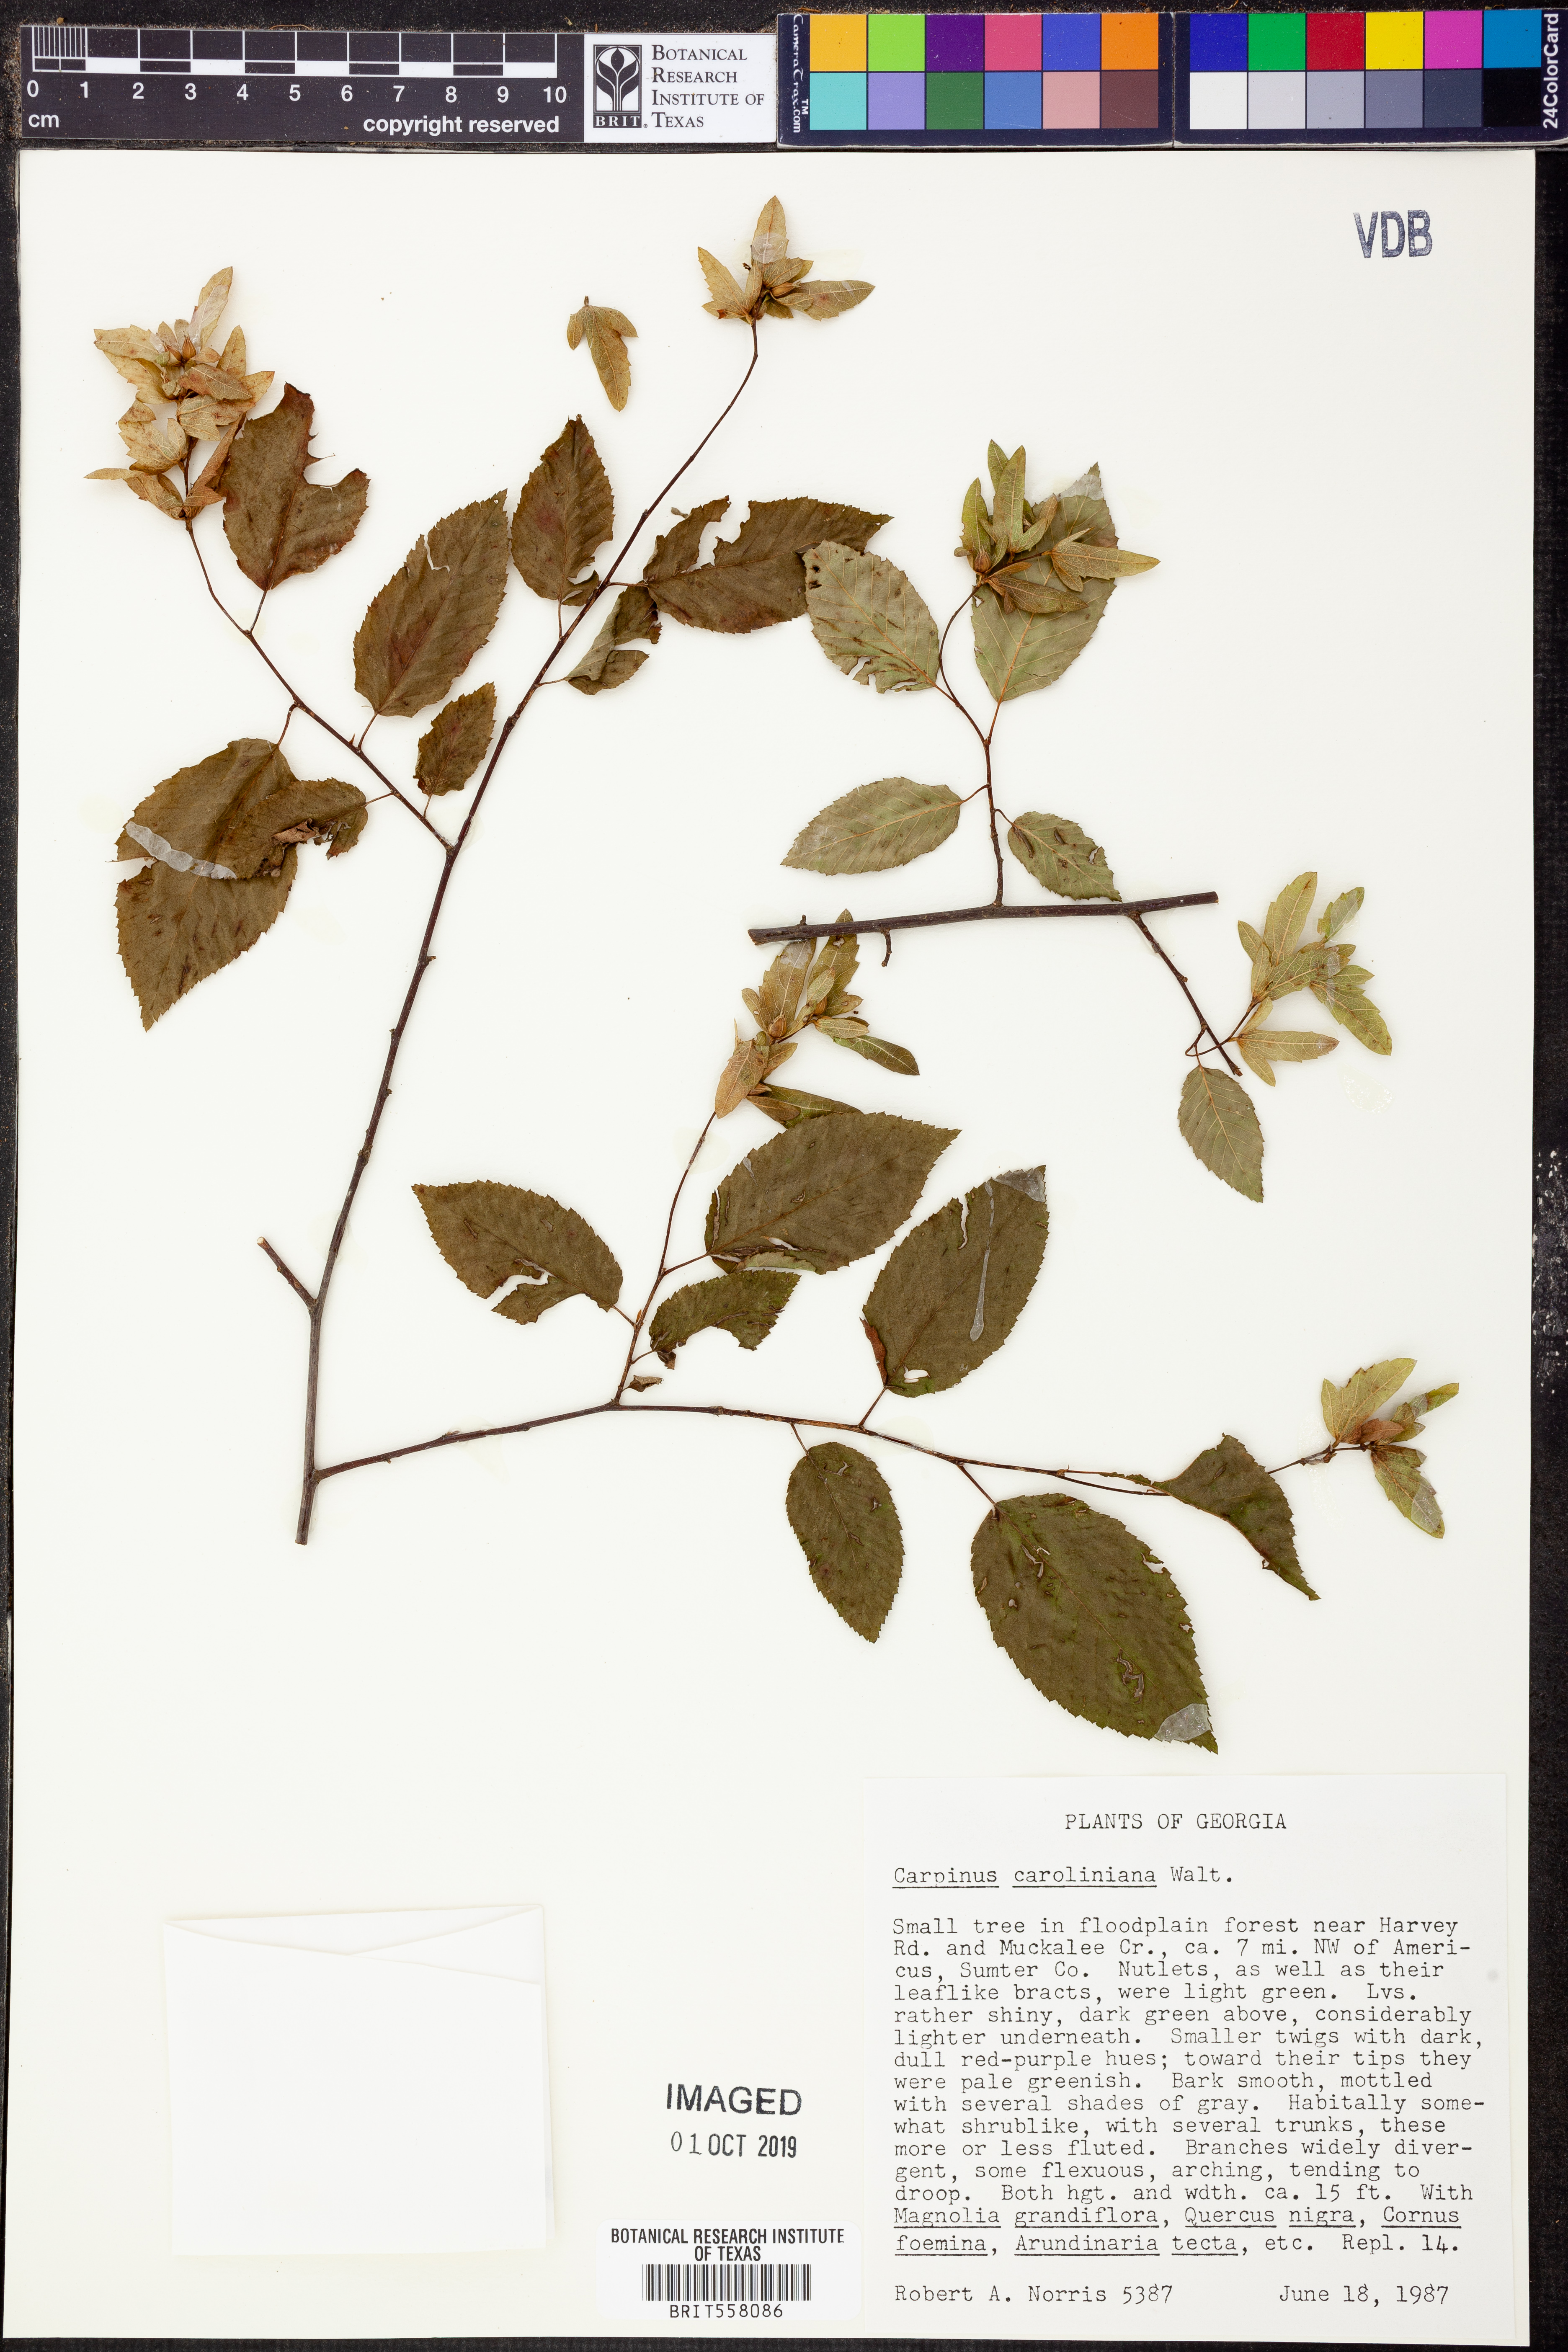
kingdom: Plantae
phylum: Tracheophyta
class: Magnoliopsida
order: Fagales
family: Betulaceae
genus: Carpinus
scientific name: Carpinus caroliniana
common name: American hornbeam
